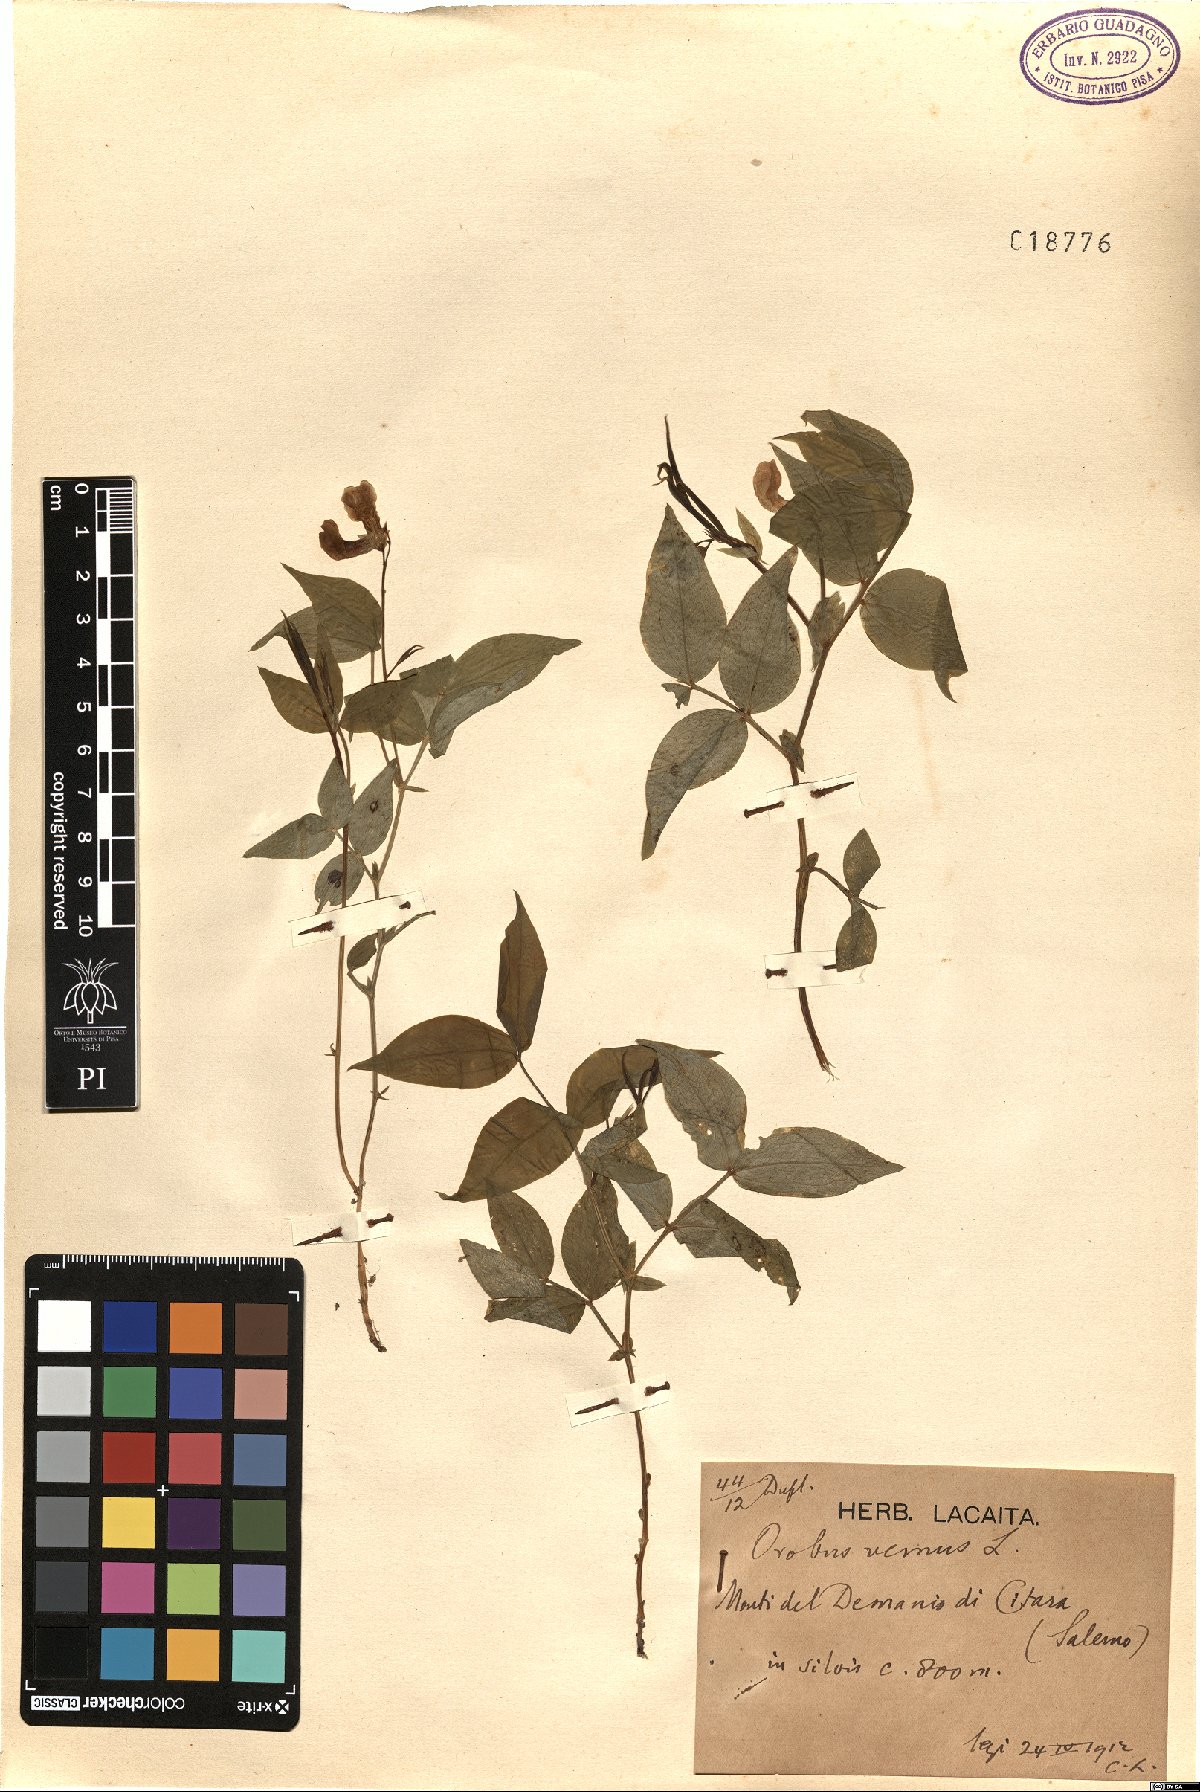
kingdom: Plantae
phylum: Tracheophyta
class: Magnoliopsida
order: Fabales
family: Fabaceae
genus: Lathyrus
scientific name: Lathyrus vernus
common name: Spring pea
